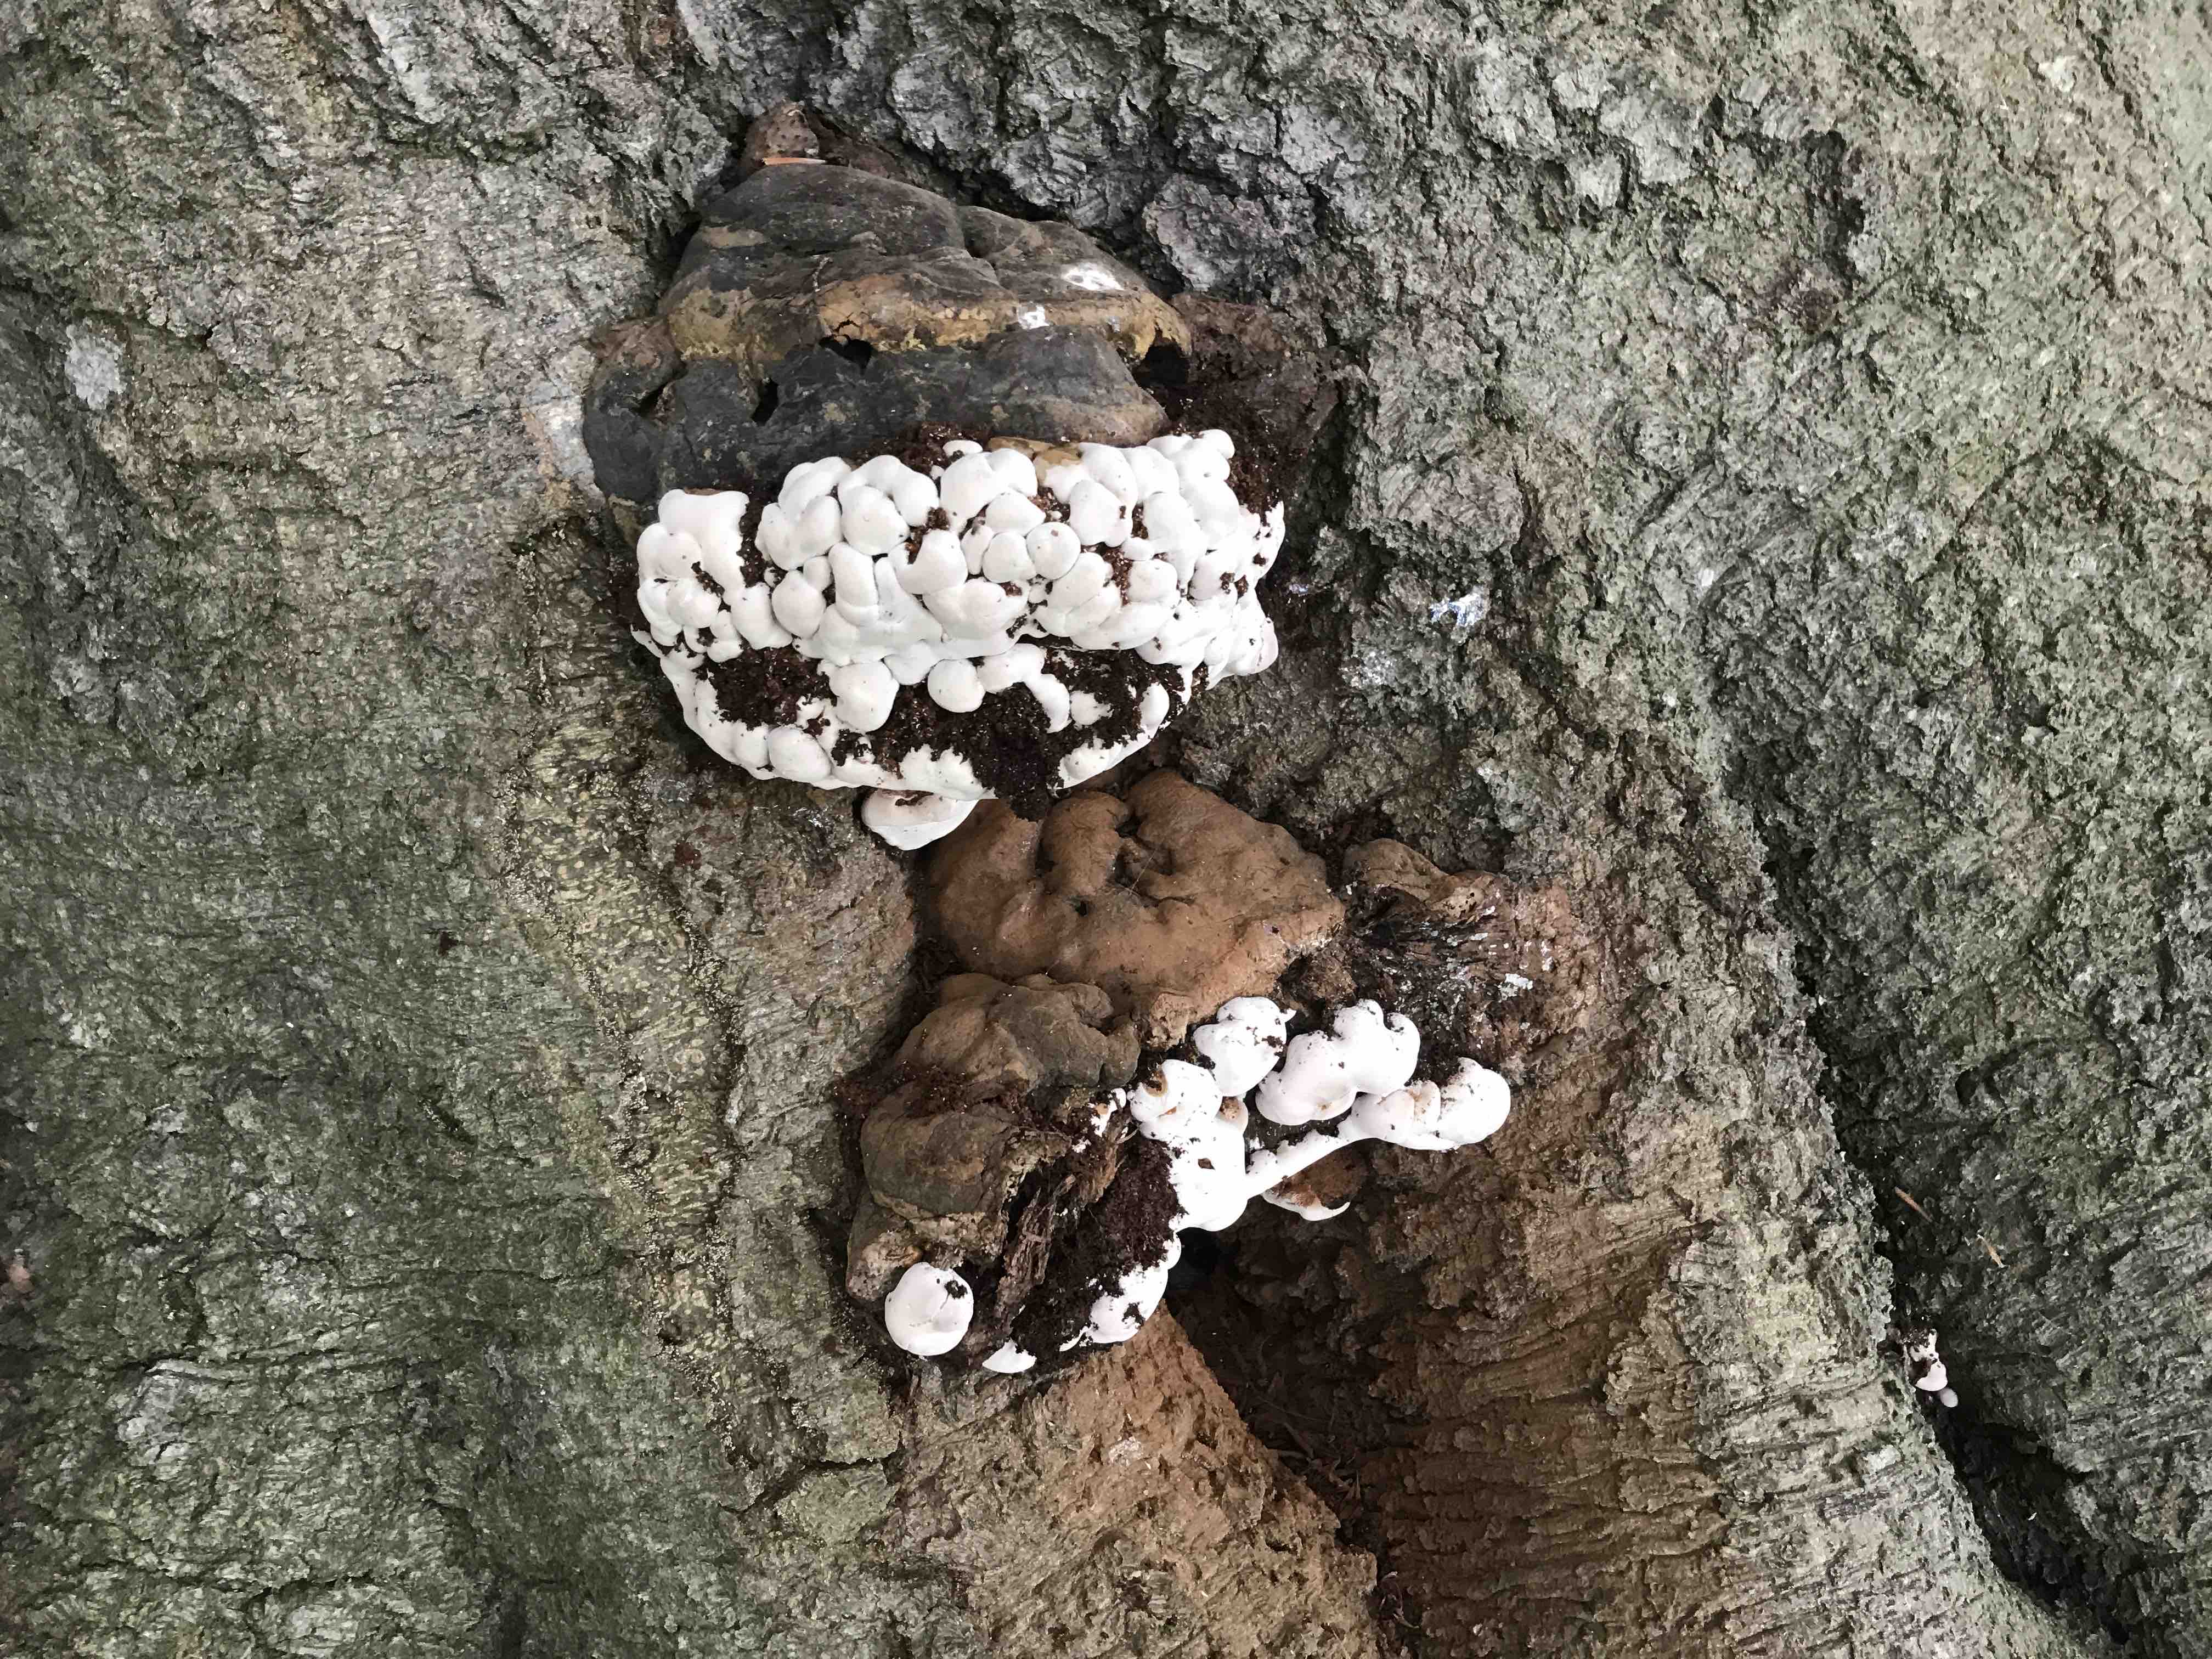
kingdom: Fungi
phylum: Basidiomycota
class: Agaricomycetes
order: Polyporales
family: Polyporaceae
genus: Ganoderma
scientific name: Ganoderma pfeifferi
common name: kobberrød lakporesvamp
